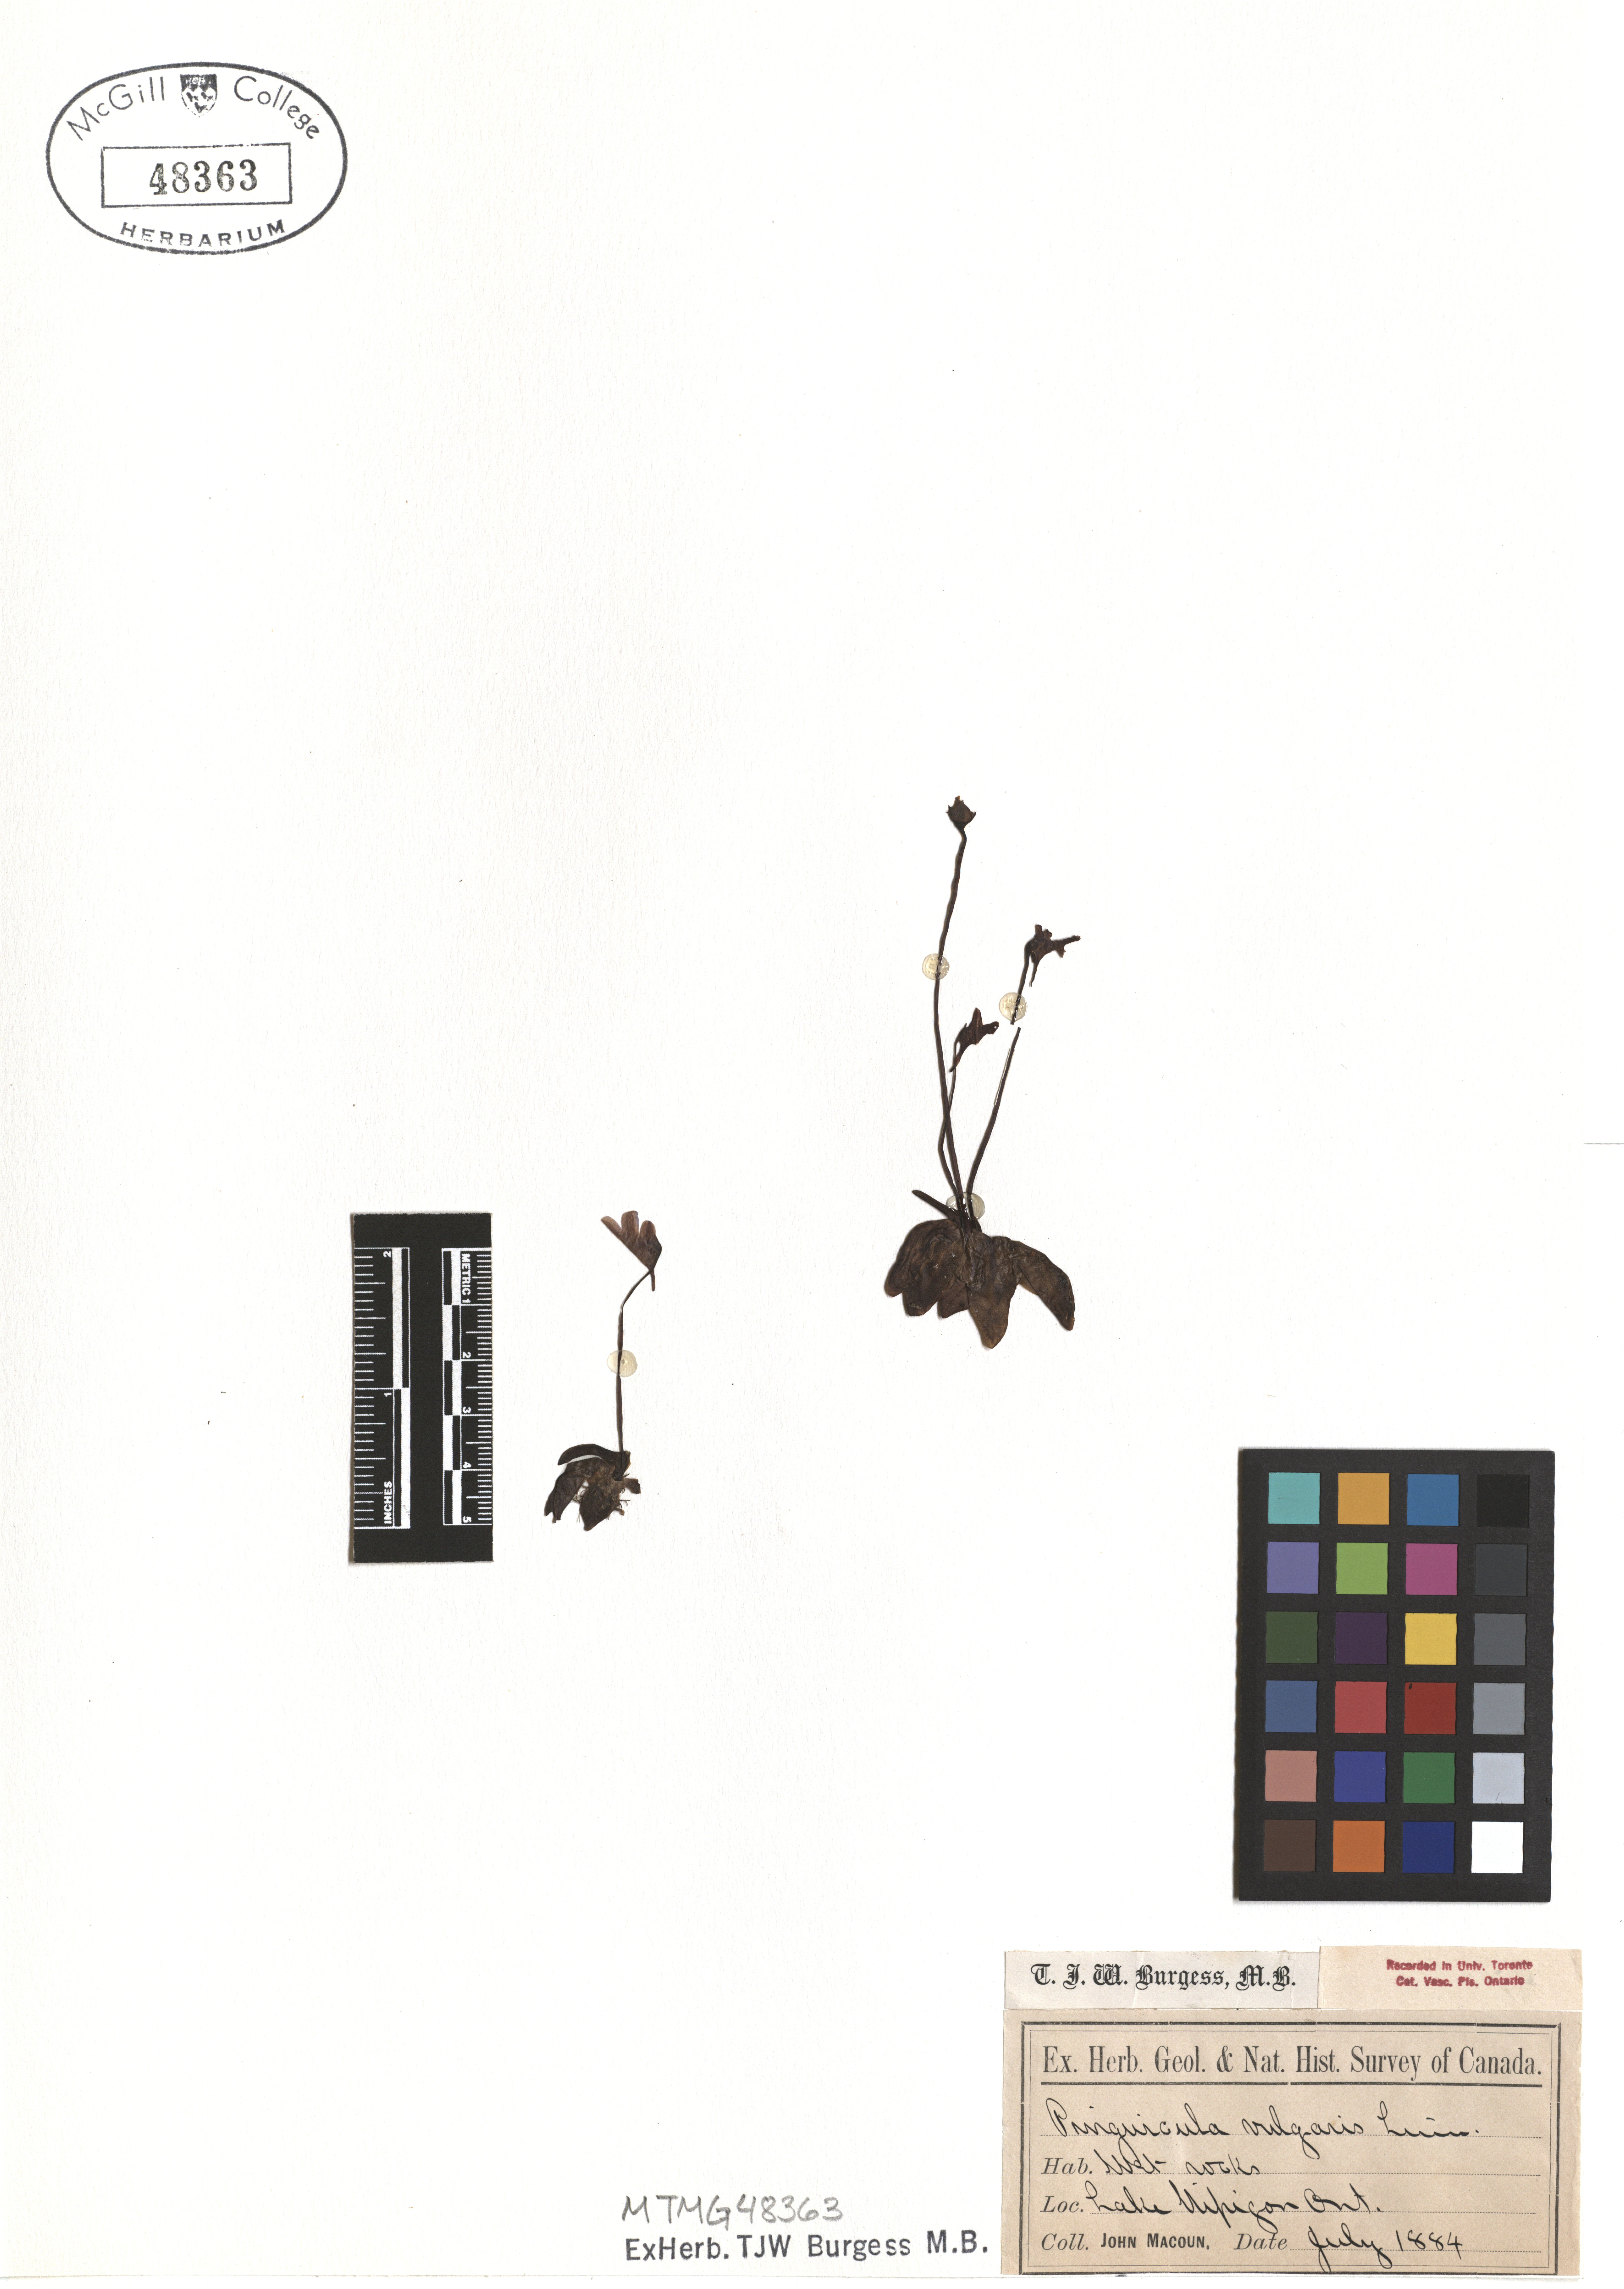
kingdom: Plantae
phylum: Tracheophyta
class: Magnoliopsida
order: Lamiales
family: Lentibulariaceae
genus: Pinguicula
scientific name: Pinguicula vulgaris
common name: Common butterwort
